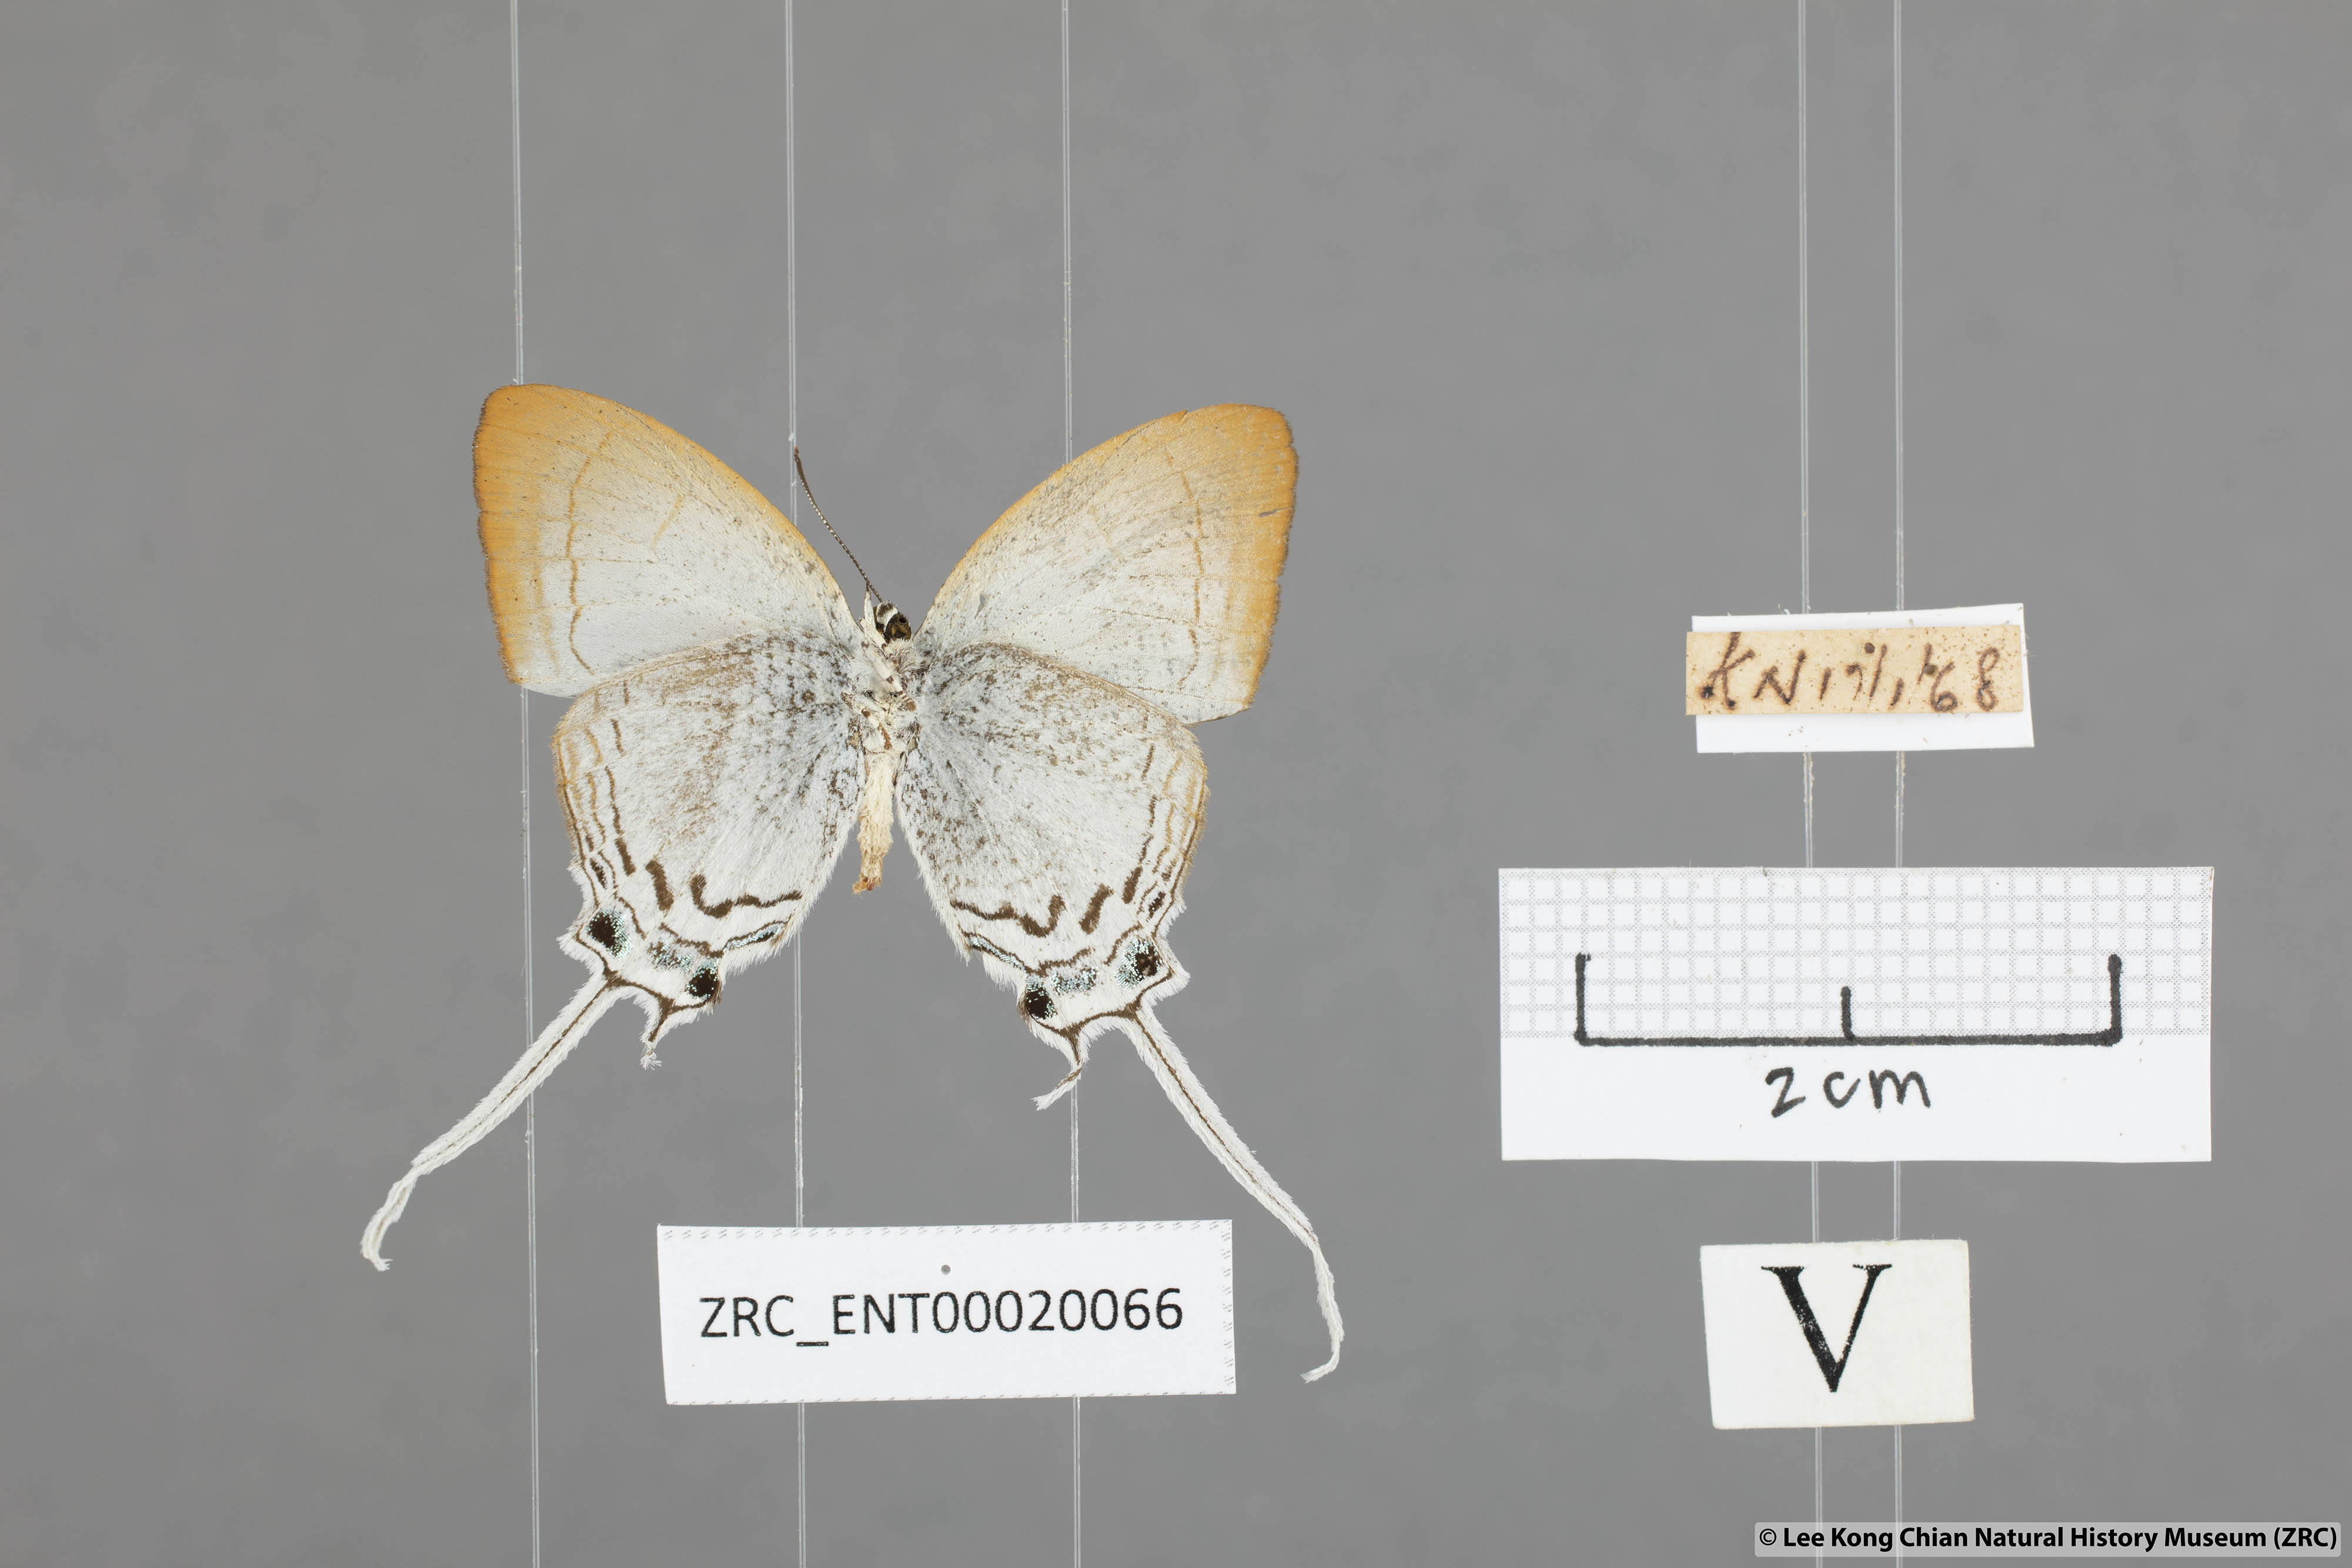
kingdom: Animalia
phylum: Arthropoda
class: Insecta
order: Lepidoptera
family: Lycaenidae
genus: Cheritra
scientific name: Cheritra freja
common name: Common imperial
